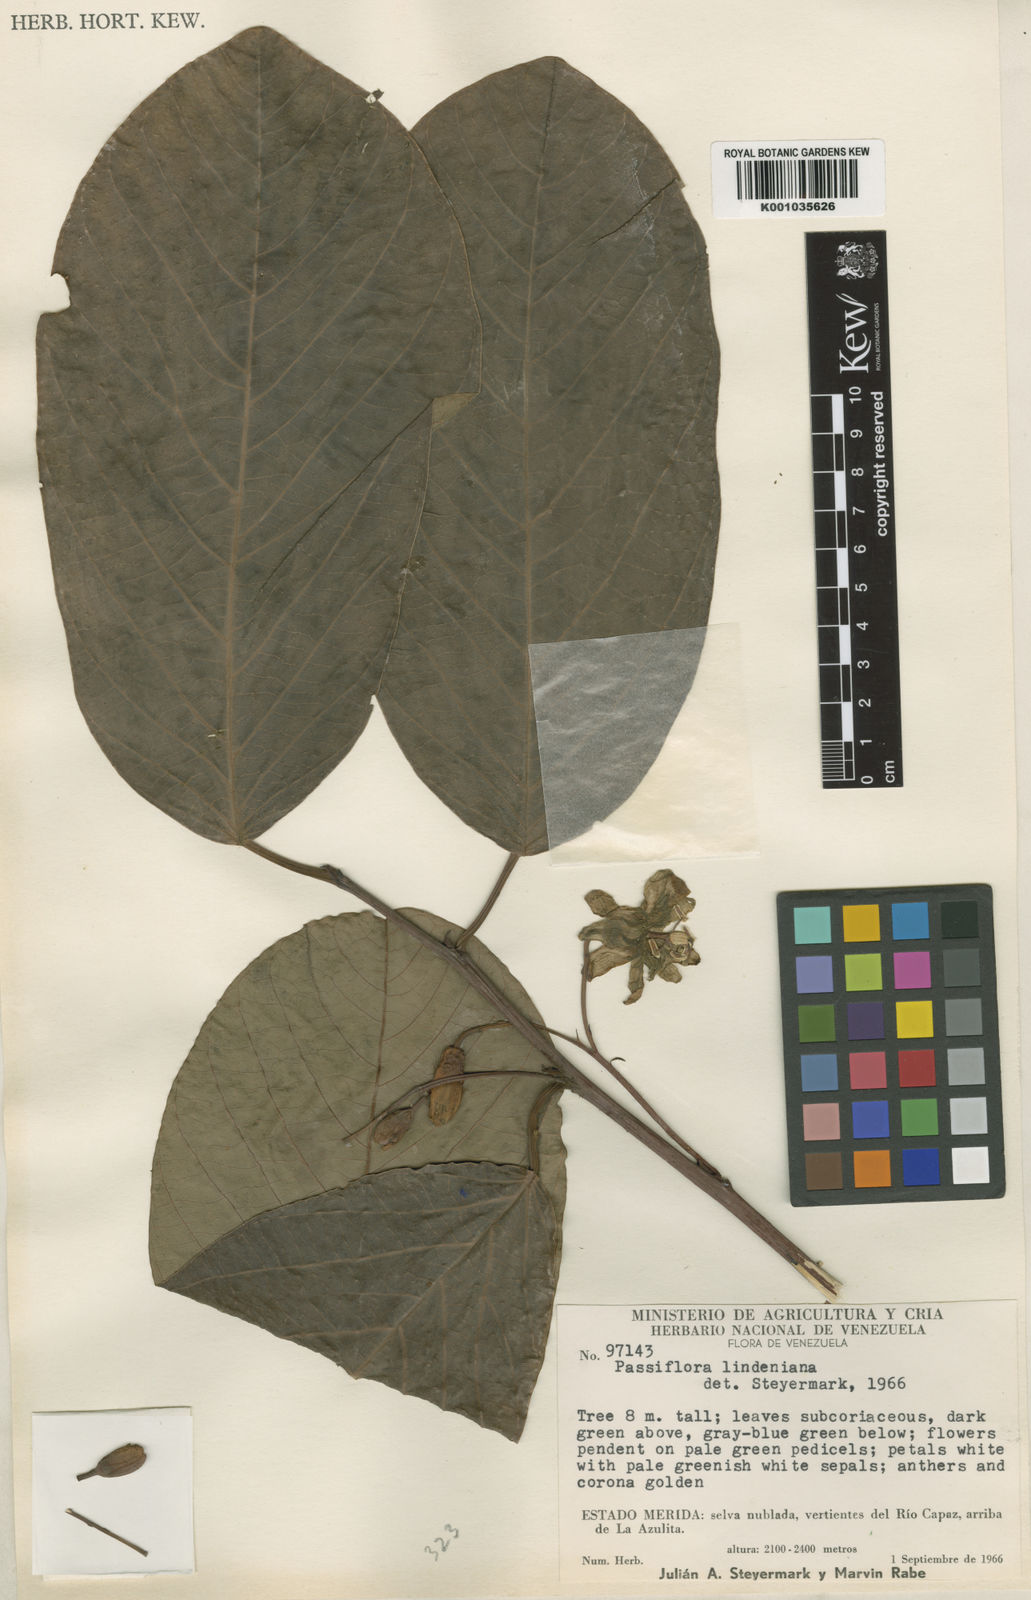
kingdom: Plantae
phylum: Tracheophyta
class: Magnoliopsida
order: Malpighiales
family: Passifloraceae
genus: Passiflora
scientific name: Passiflora lindeniana
